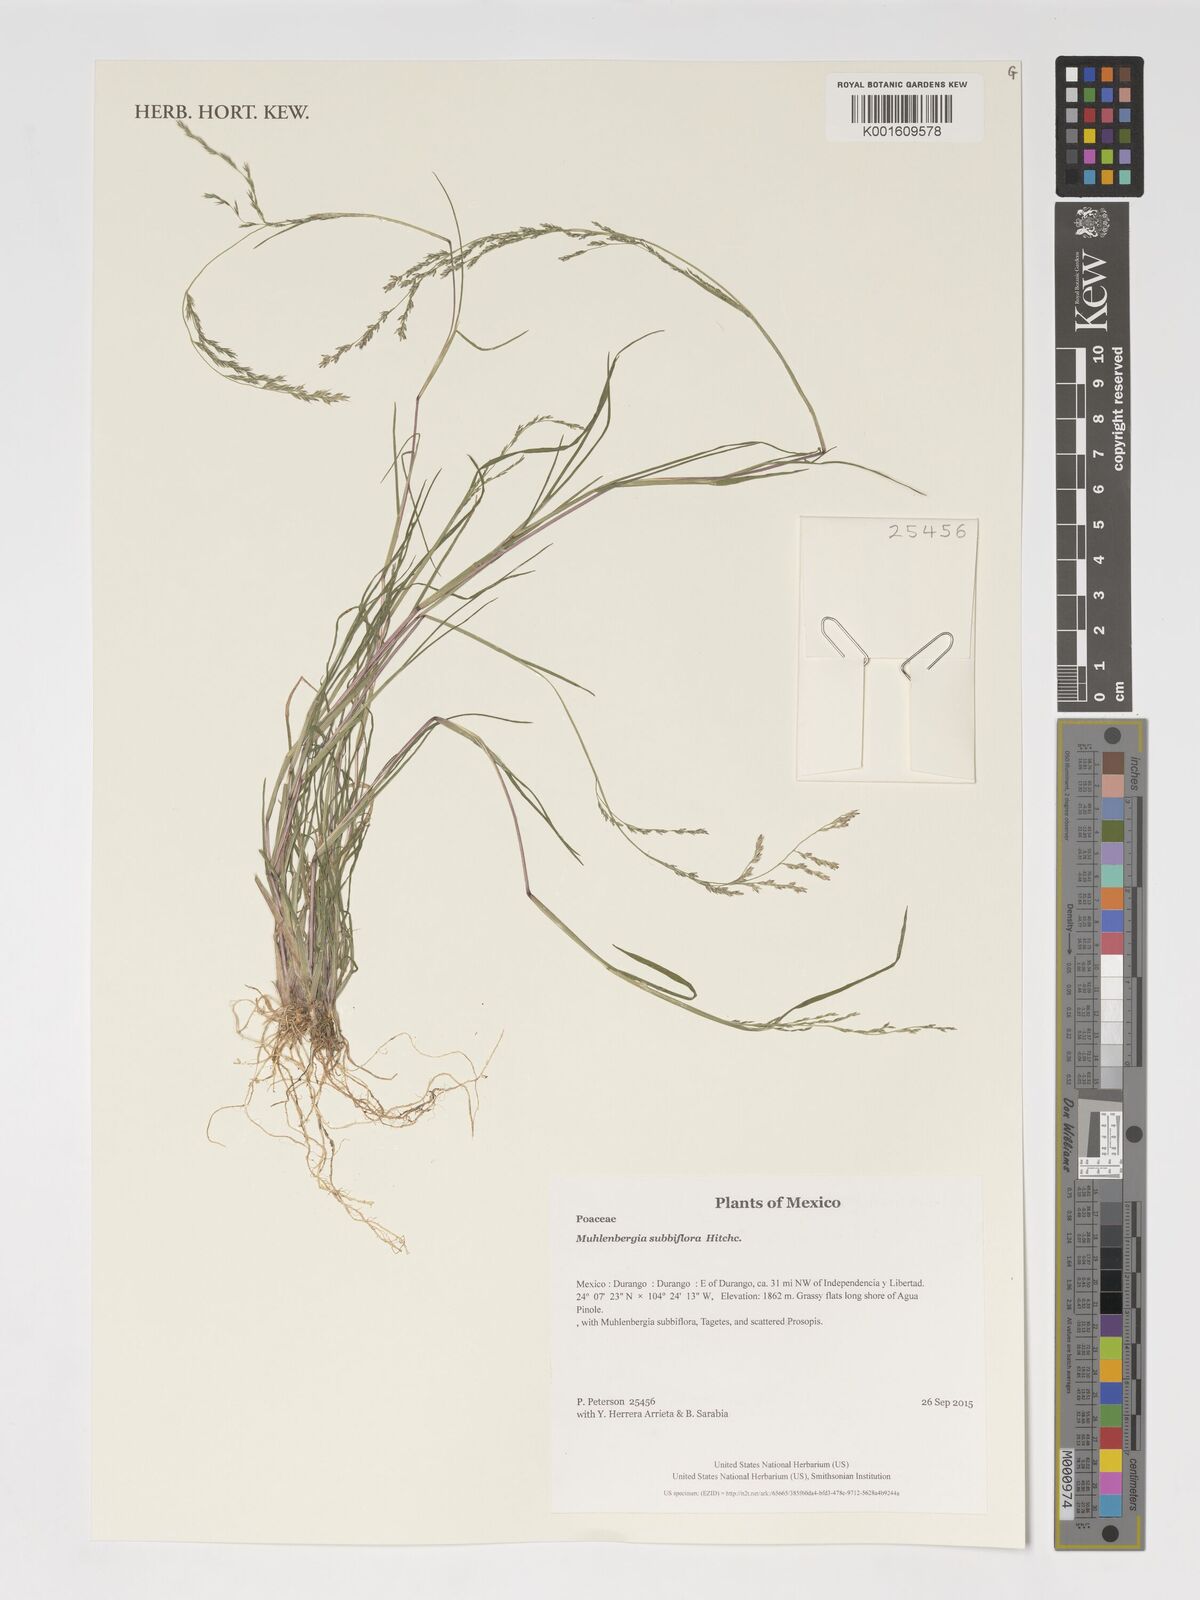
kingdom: Plantae
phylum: Tracheophyta
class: Liliopsida
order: Poales
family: Poaceae
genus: Muhlenbergia
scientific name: Muhlenbergia subbiflora
